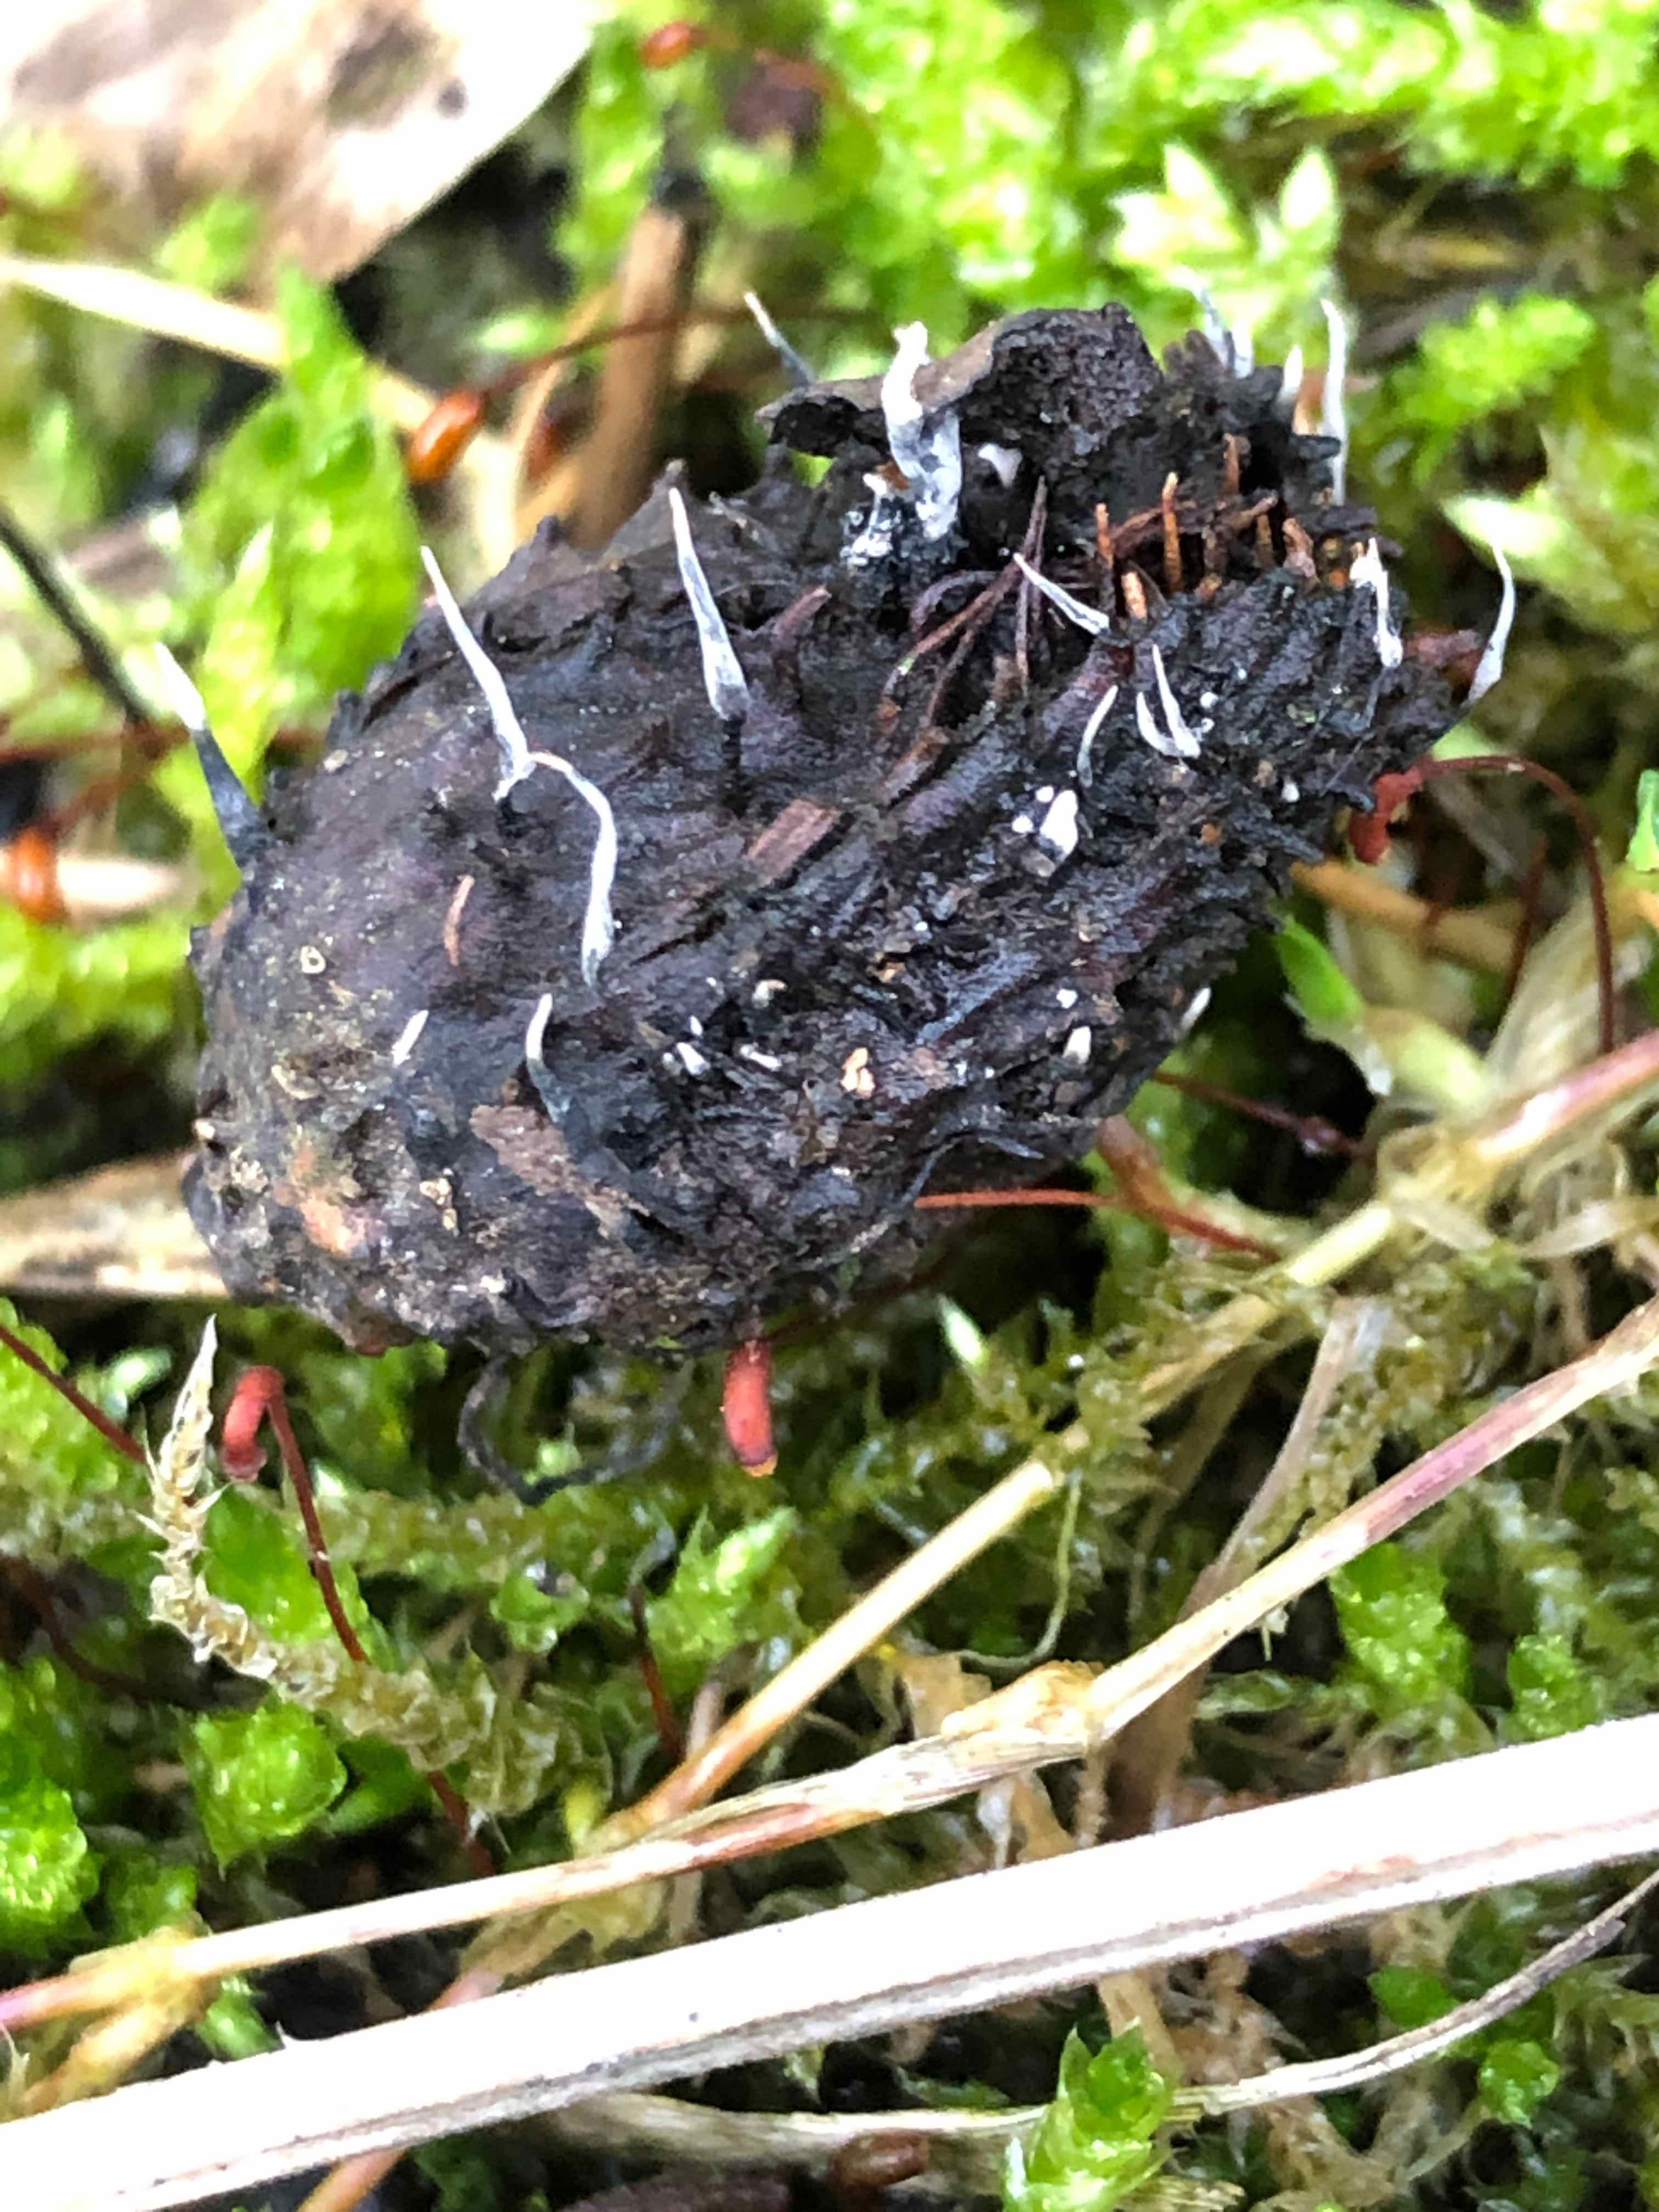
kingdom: Fungi
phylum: Ascomycota
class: Sordariomycetes
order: Xylariales
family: Xylariaceae
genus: Xylaria
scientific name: Xylaria carpophila
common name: bogskål-stødsvamp
